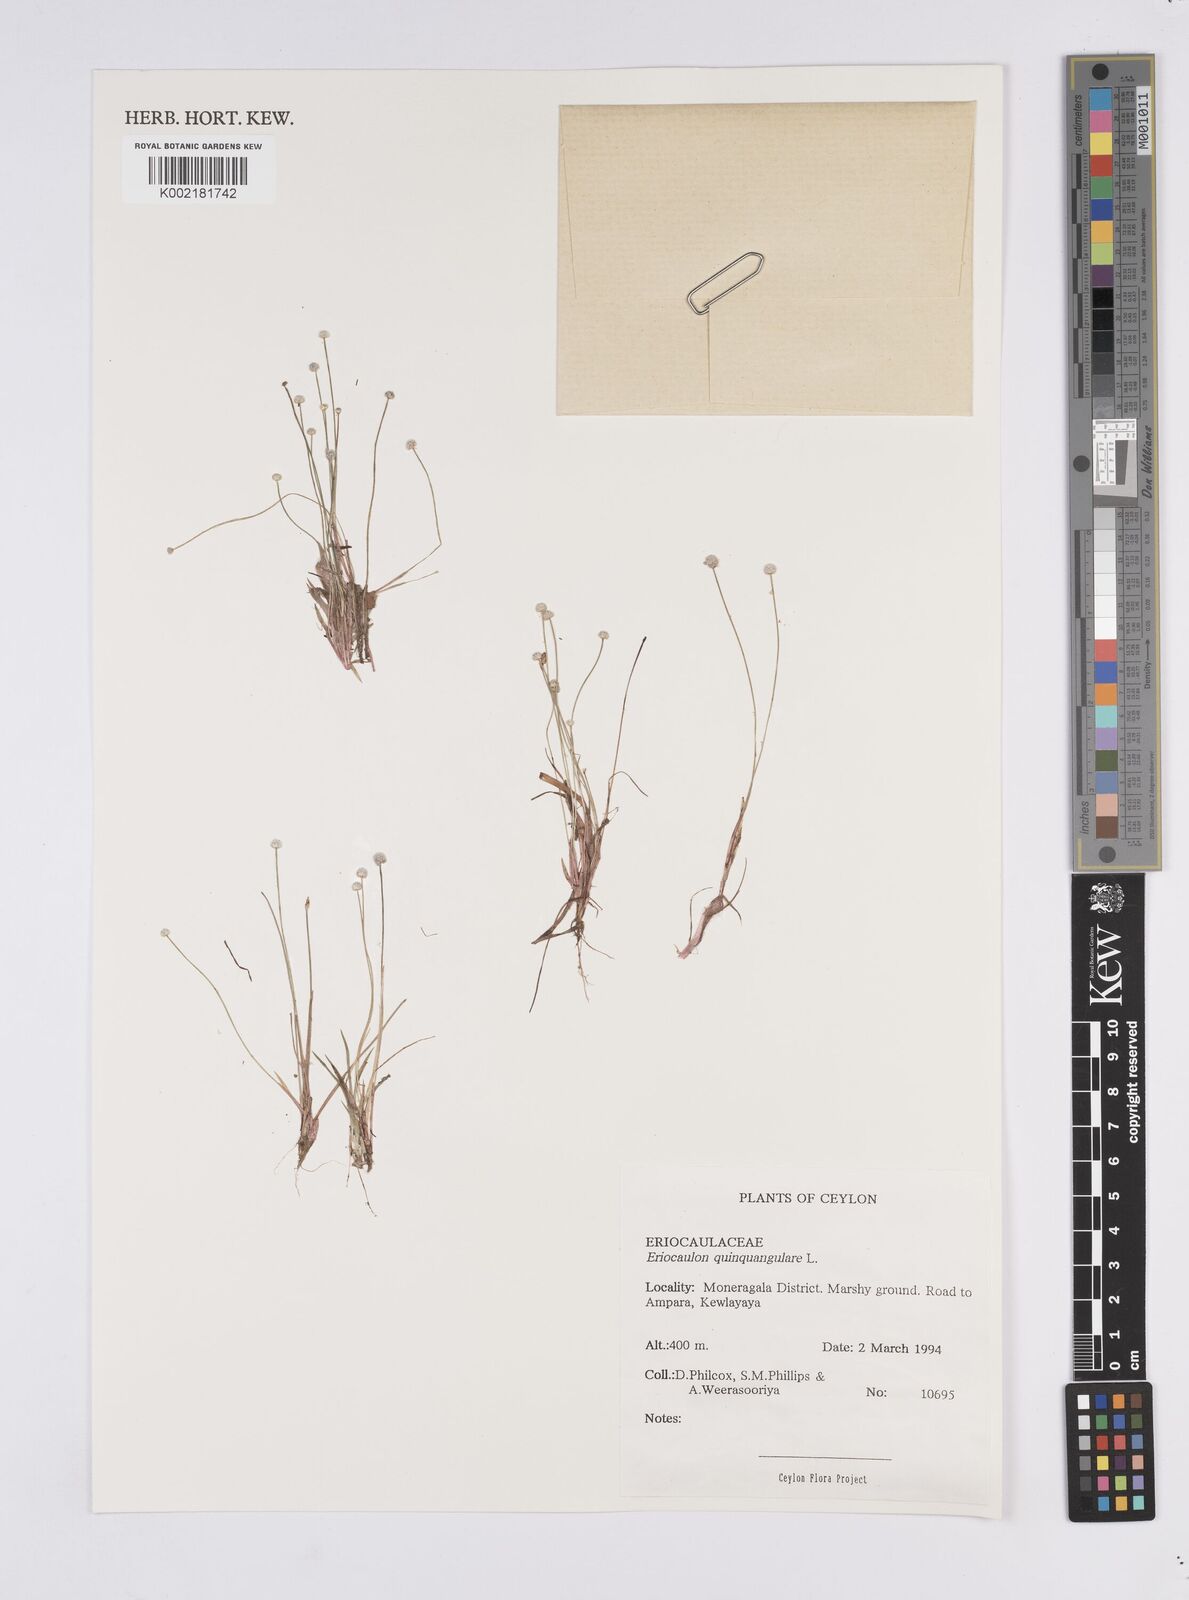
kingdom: Plantae
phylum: Tracheophyta
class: Liliopsida
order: Poales
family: Eriocaulaceae
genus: Eriocaulon
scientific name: Eriocaulon quinquangulare
